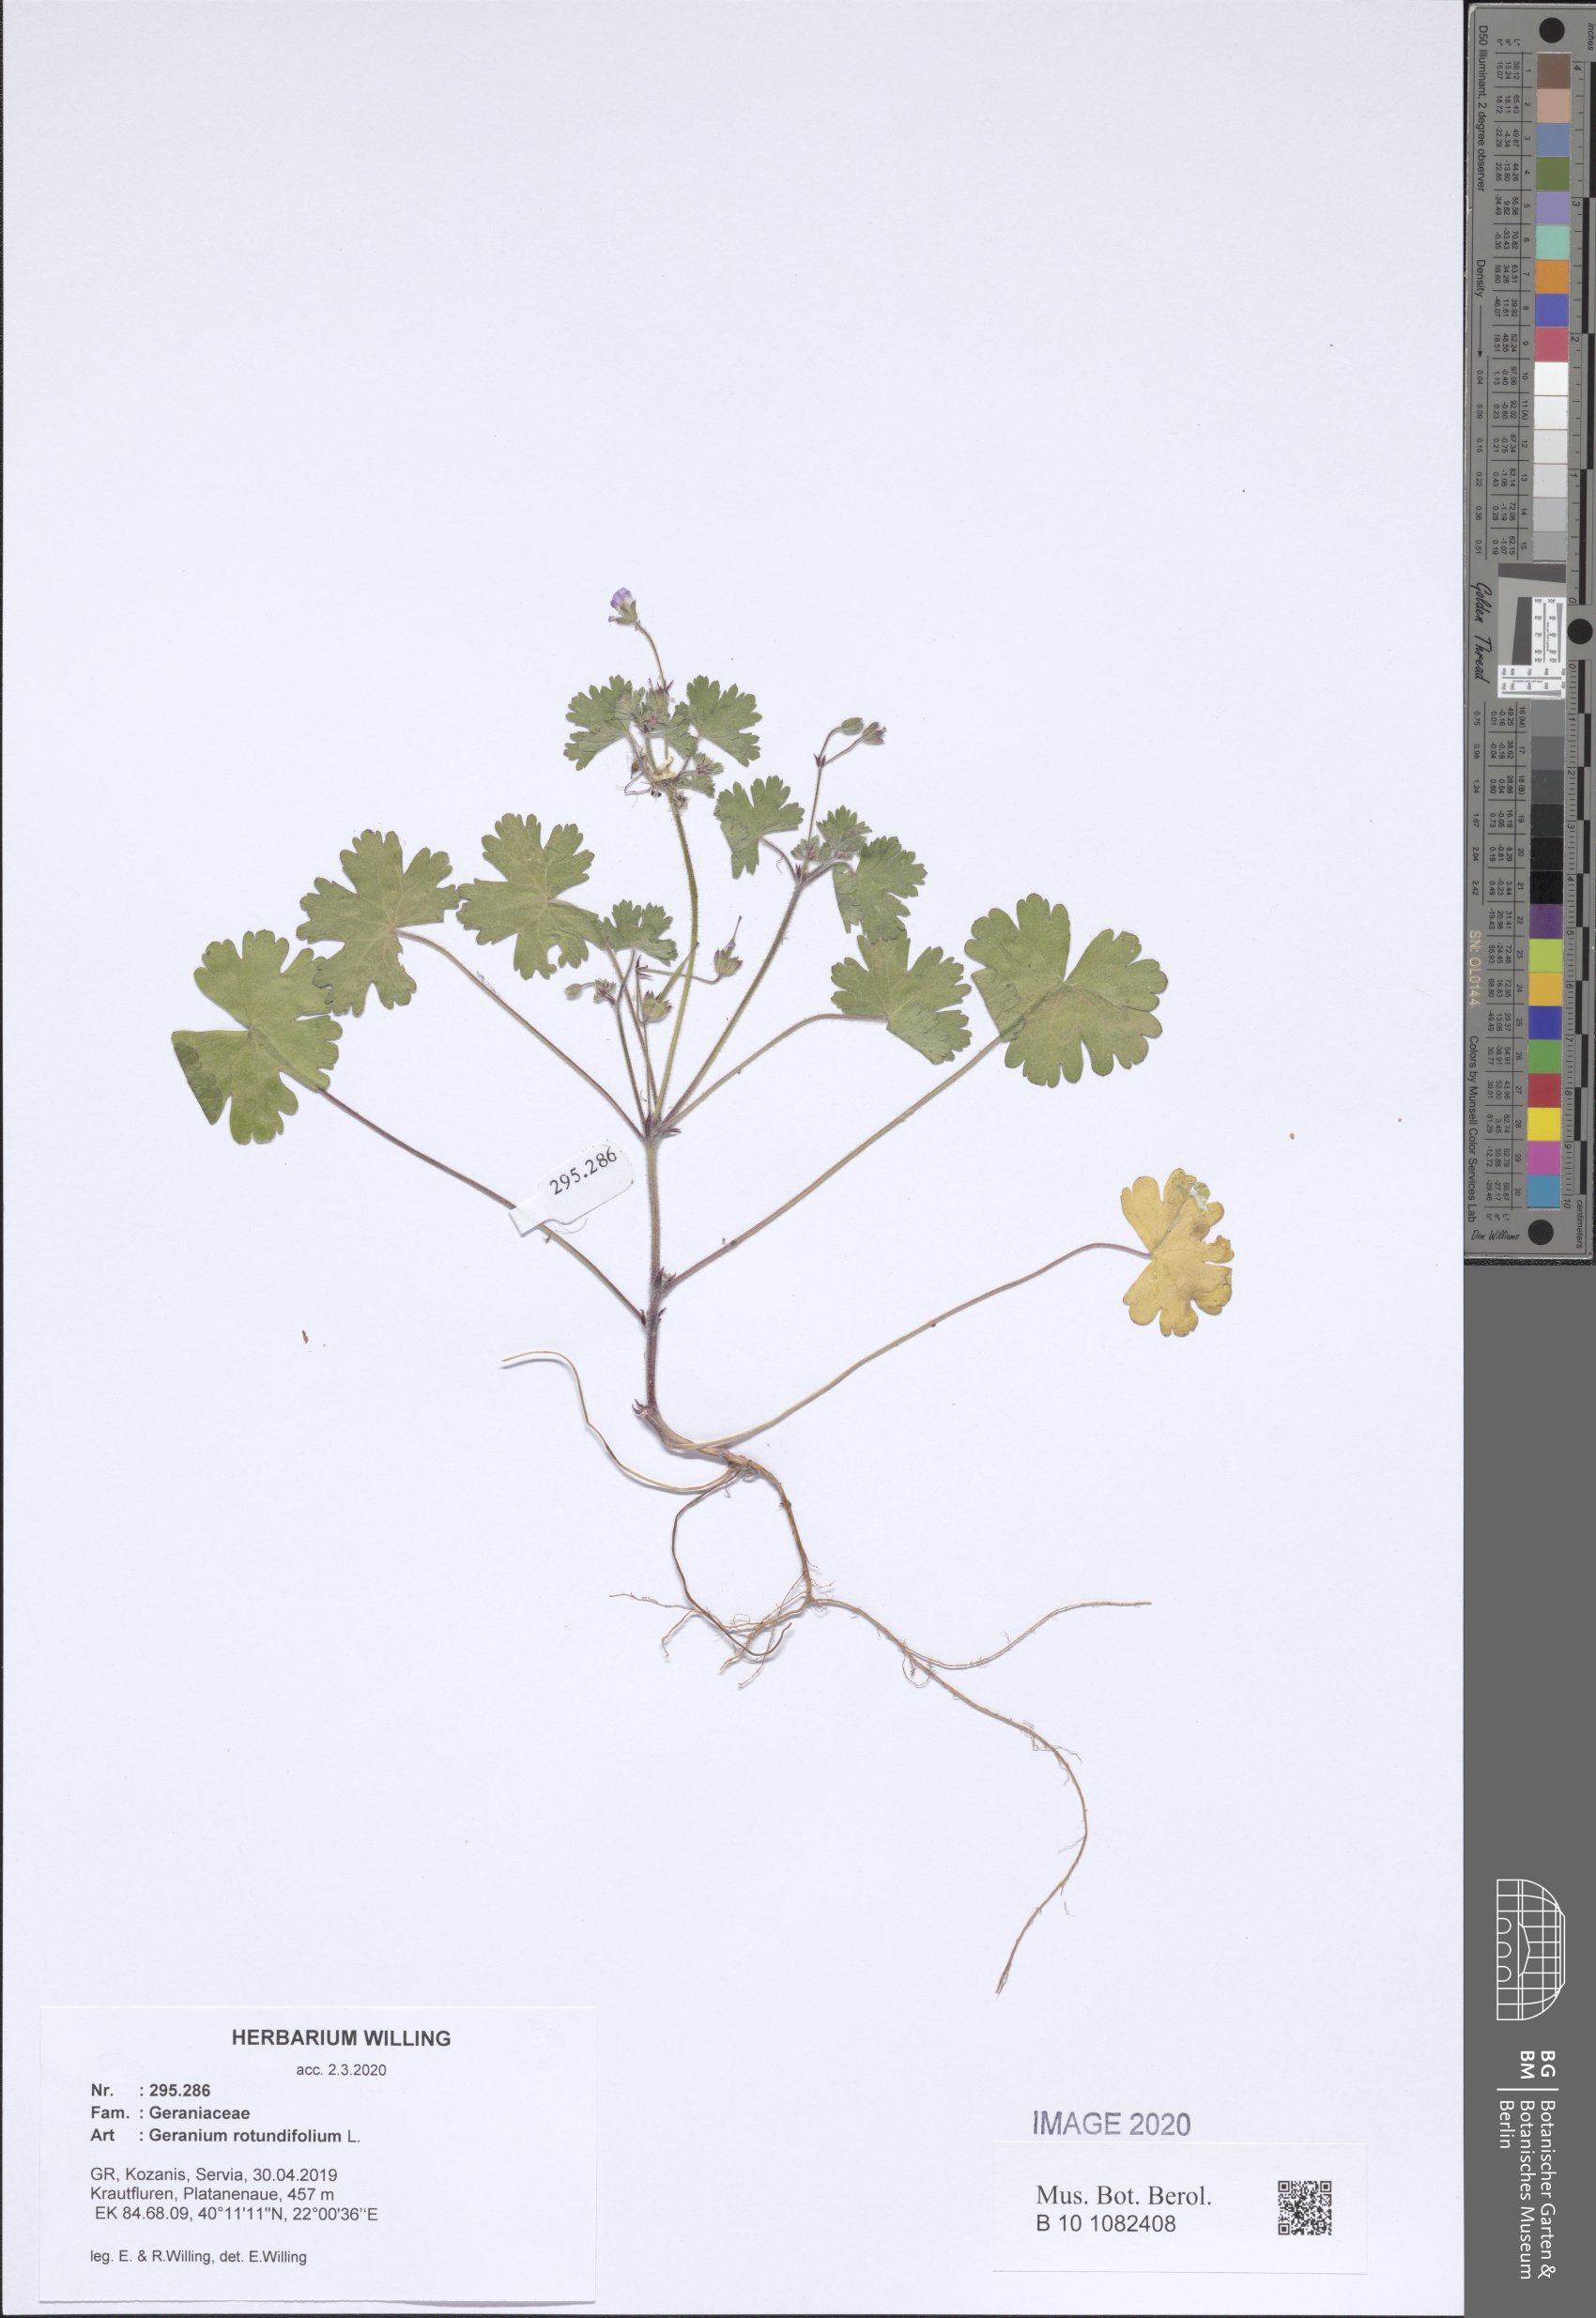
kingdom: Plantae
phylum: Tracheophyta
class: Magnoliopsida
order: Geraniales
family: Geraniaceae
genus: Geranium
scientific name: Geranium rotundifolium
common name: Round-leaved crane's-bill
